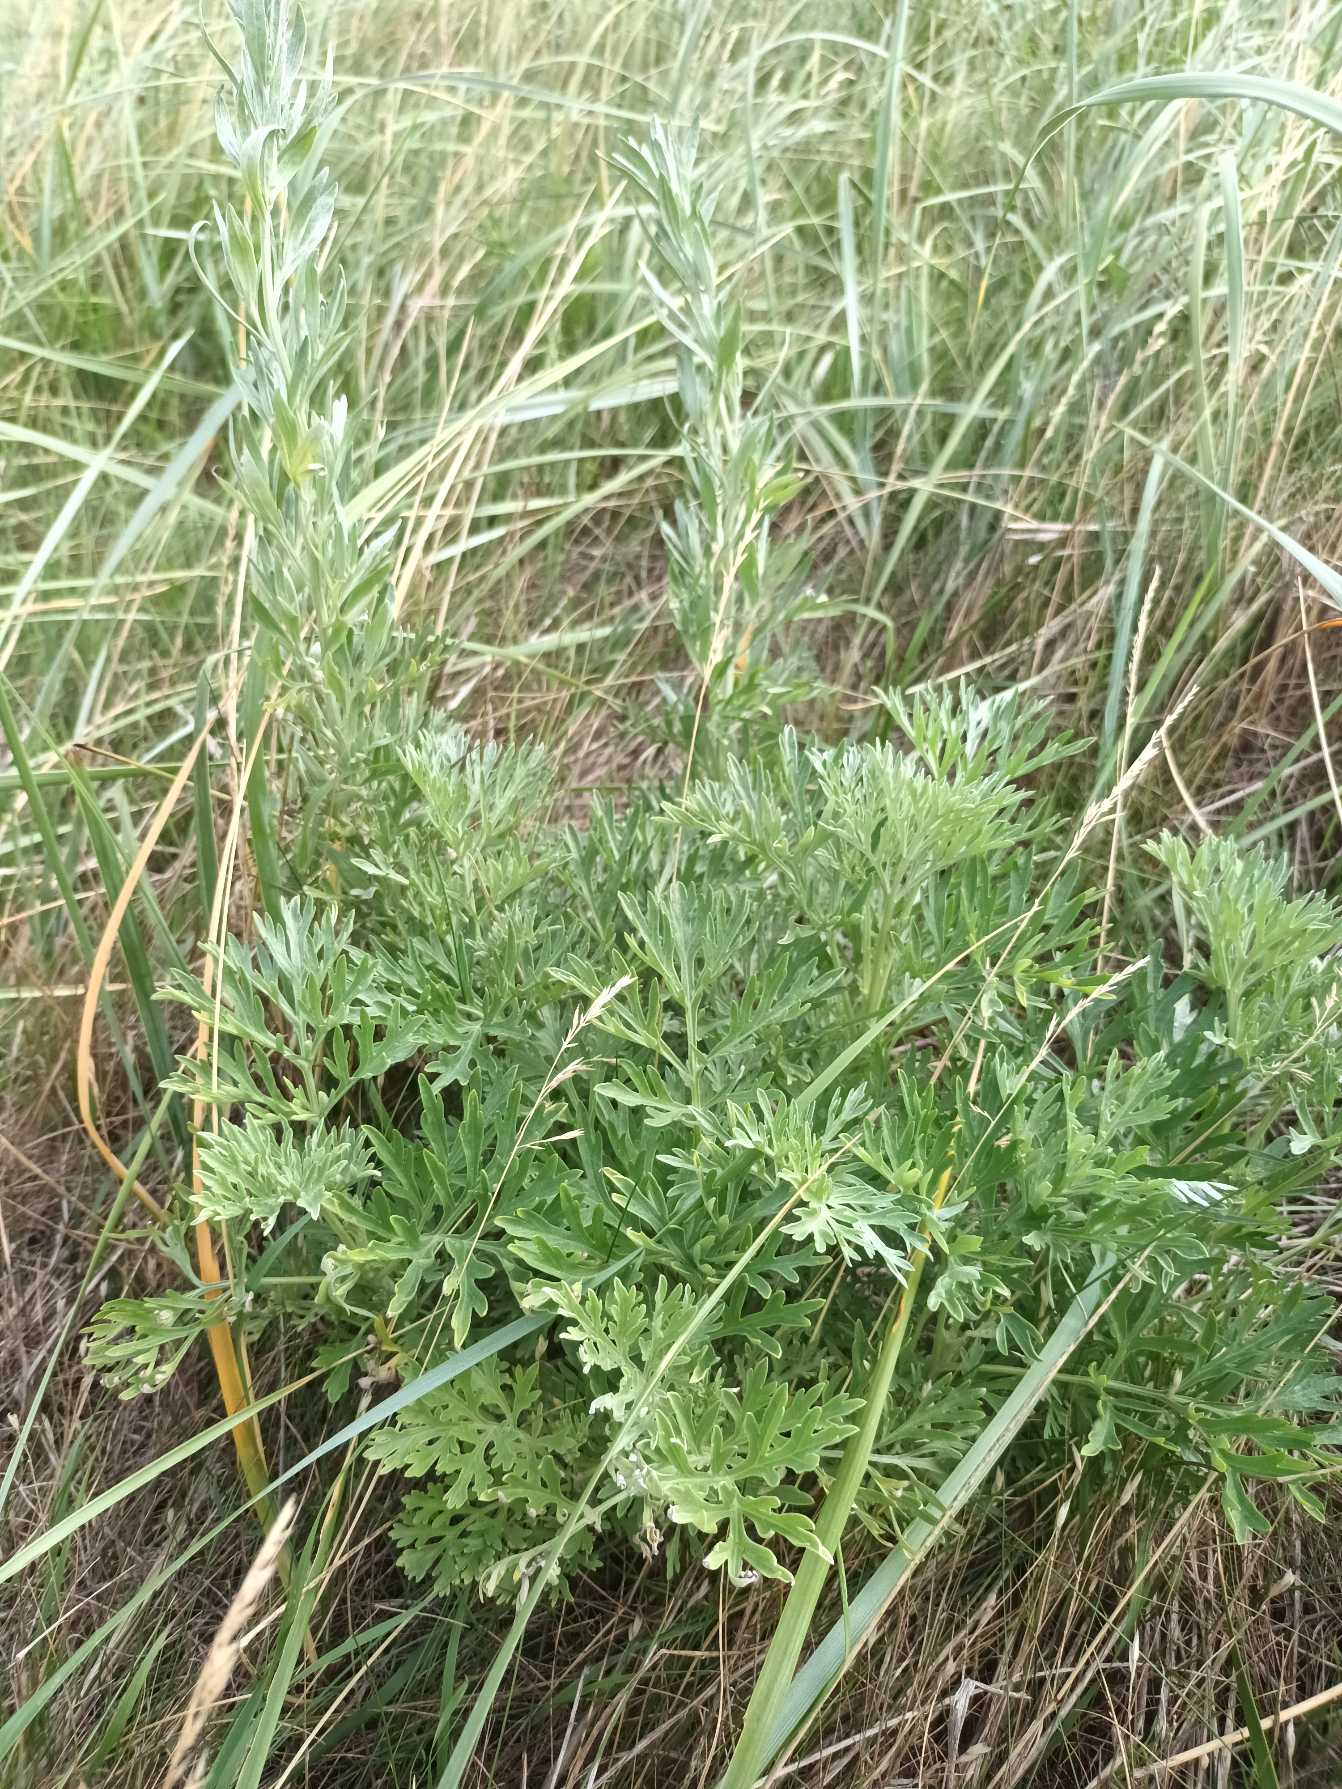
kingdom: Plantae
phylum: Tracheophyta
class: Magnoliopsida
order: Asterales
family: Asteraceae
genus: Artemisia
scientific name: Artemisia absinthium
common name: Havemalurt
